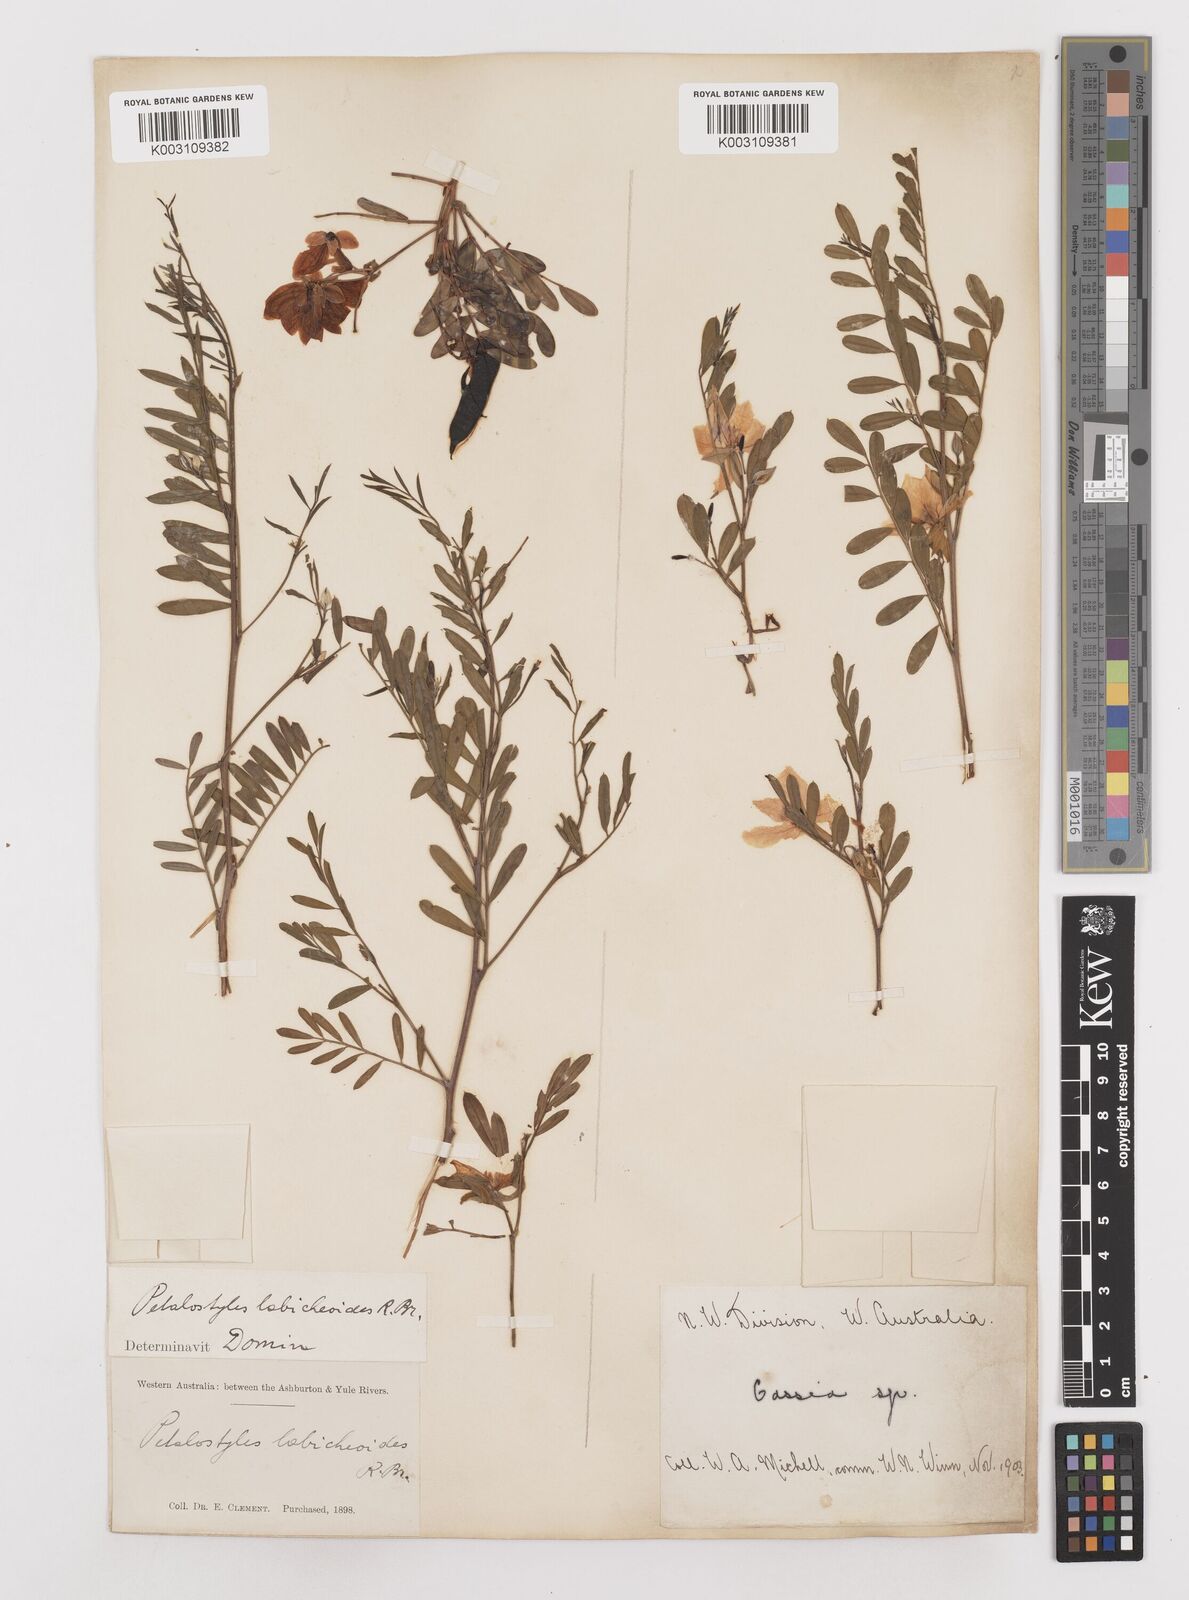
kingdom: Plantae
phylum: Tracheophyta
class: Magnoliopsida
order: Fabales
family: Fabaceae
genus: Petalostylis
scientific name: Petalostylis labicheoides
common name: Butterfly bush
